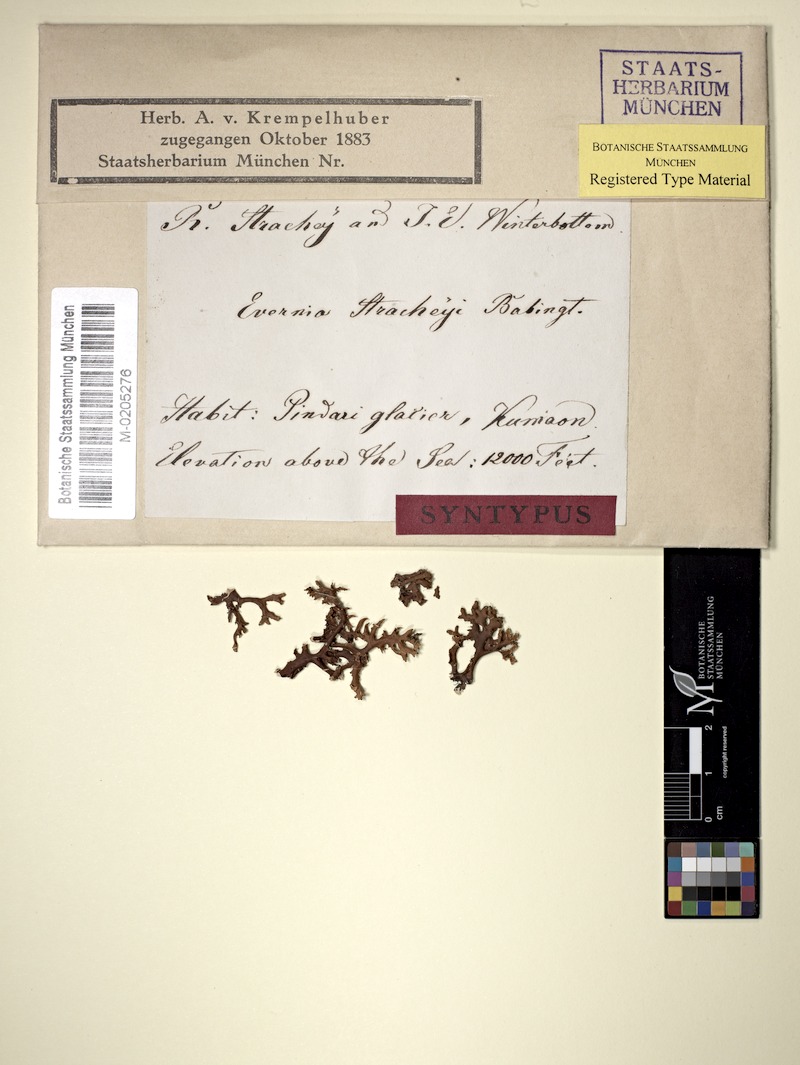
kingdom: Fungi
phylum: Ascomycota
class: Lecanoromycetes
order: Lecanorales
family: Parmeliaceae
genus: Cetraria
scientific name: Cetraria laii
